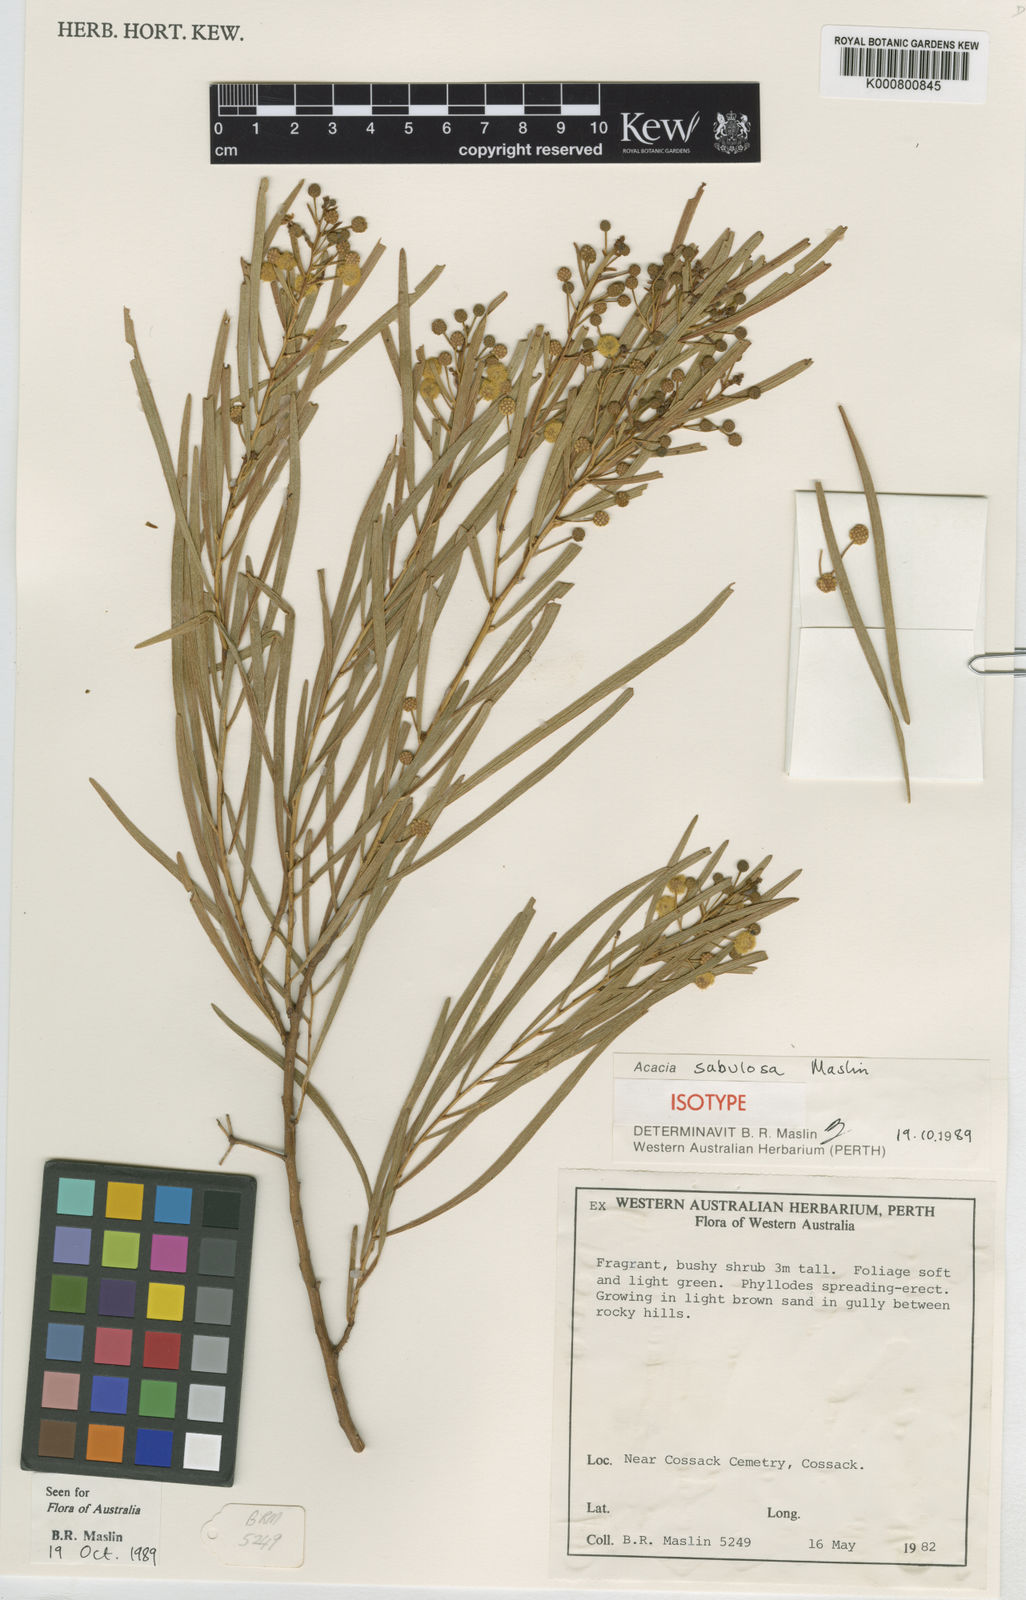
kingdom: Plantae
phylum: Tracheophyta
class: Magnoliopsida
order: Fabales
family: Fabaceae
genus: Acacia
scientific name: Acacia sabulosa
